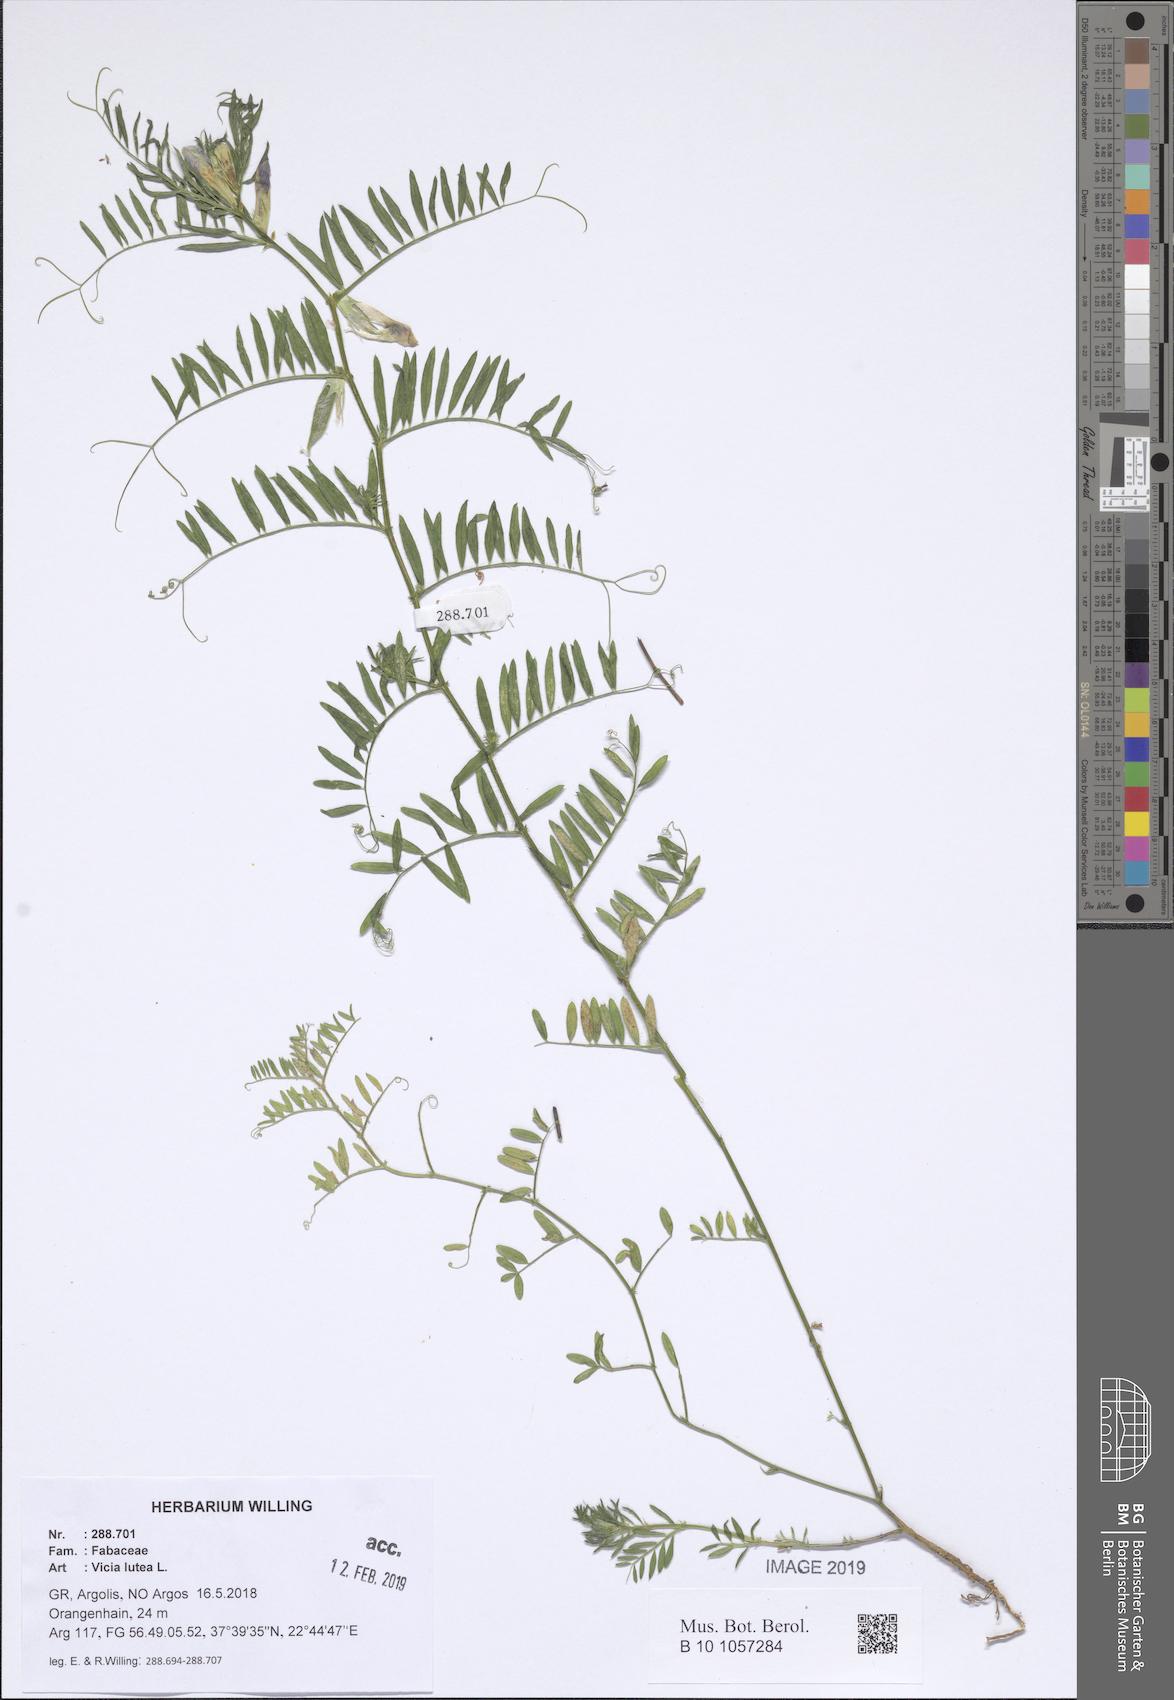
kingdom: Plantae
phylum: Tracheophyta
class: Magnoliopsida
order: Fabales
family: Fabaceae
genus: Vicia
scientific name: Vicia lutea
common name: Smooth yellow vetch
